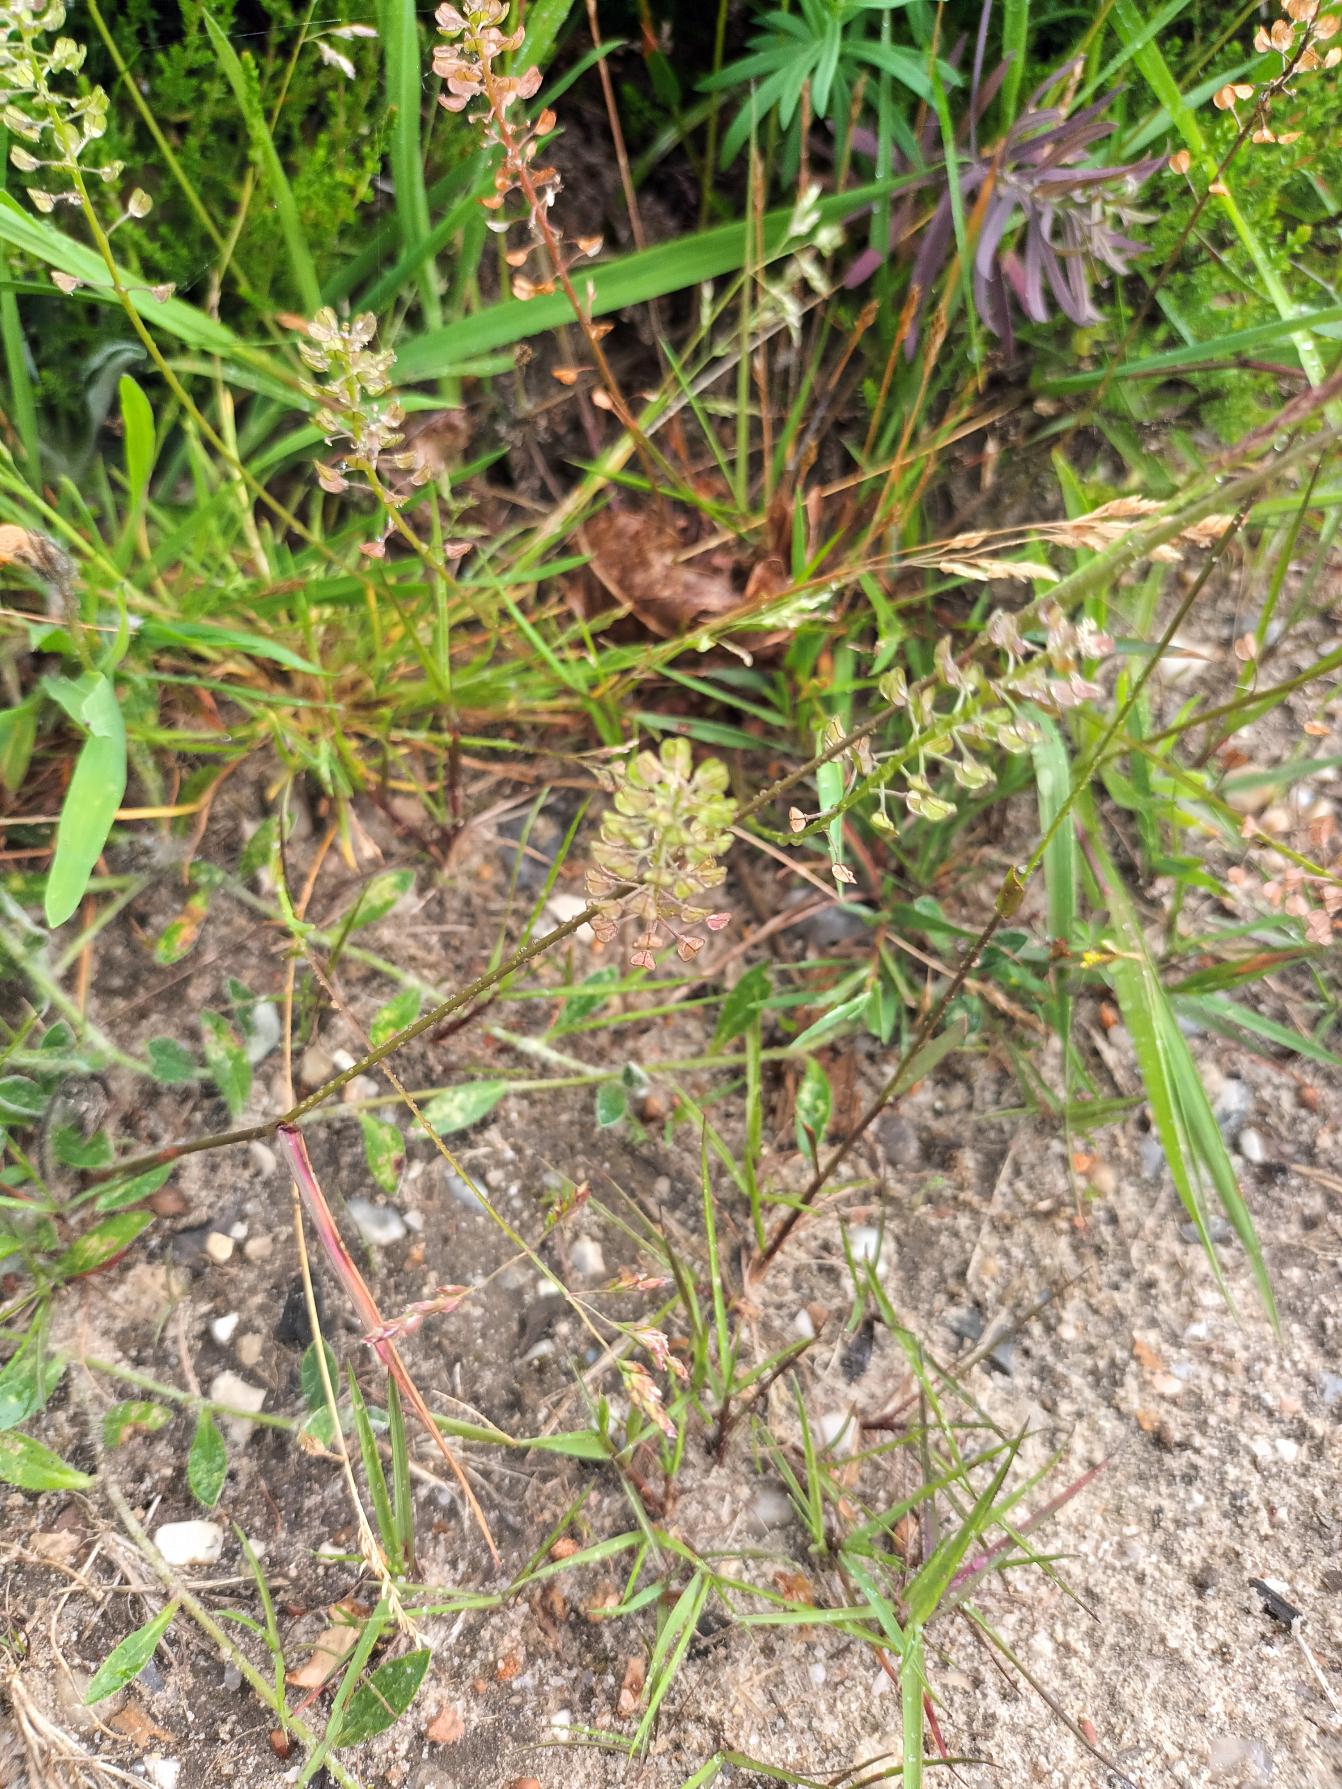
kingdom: Plantae
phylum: Tracheophyta
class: Magnoliopsida
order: Brassicales
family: Brassicaceae
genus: Teesdalia
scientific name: Teesdalia nudicaulis
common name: Flipkrave
